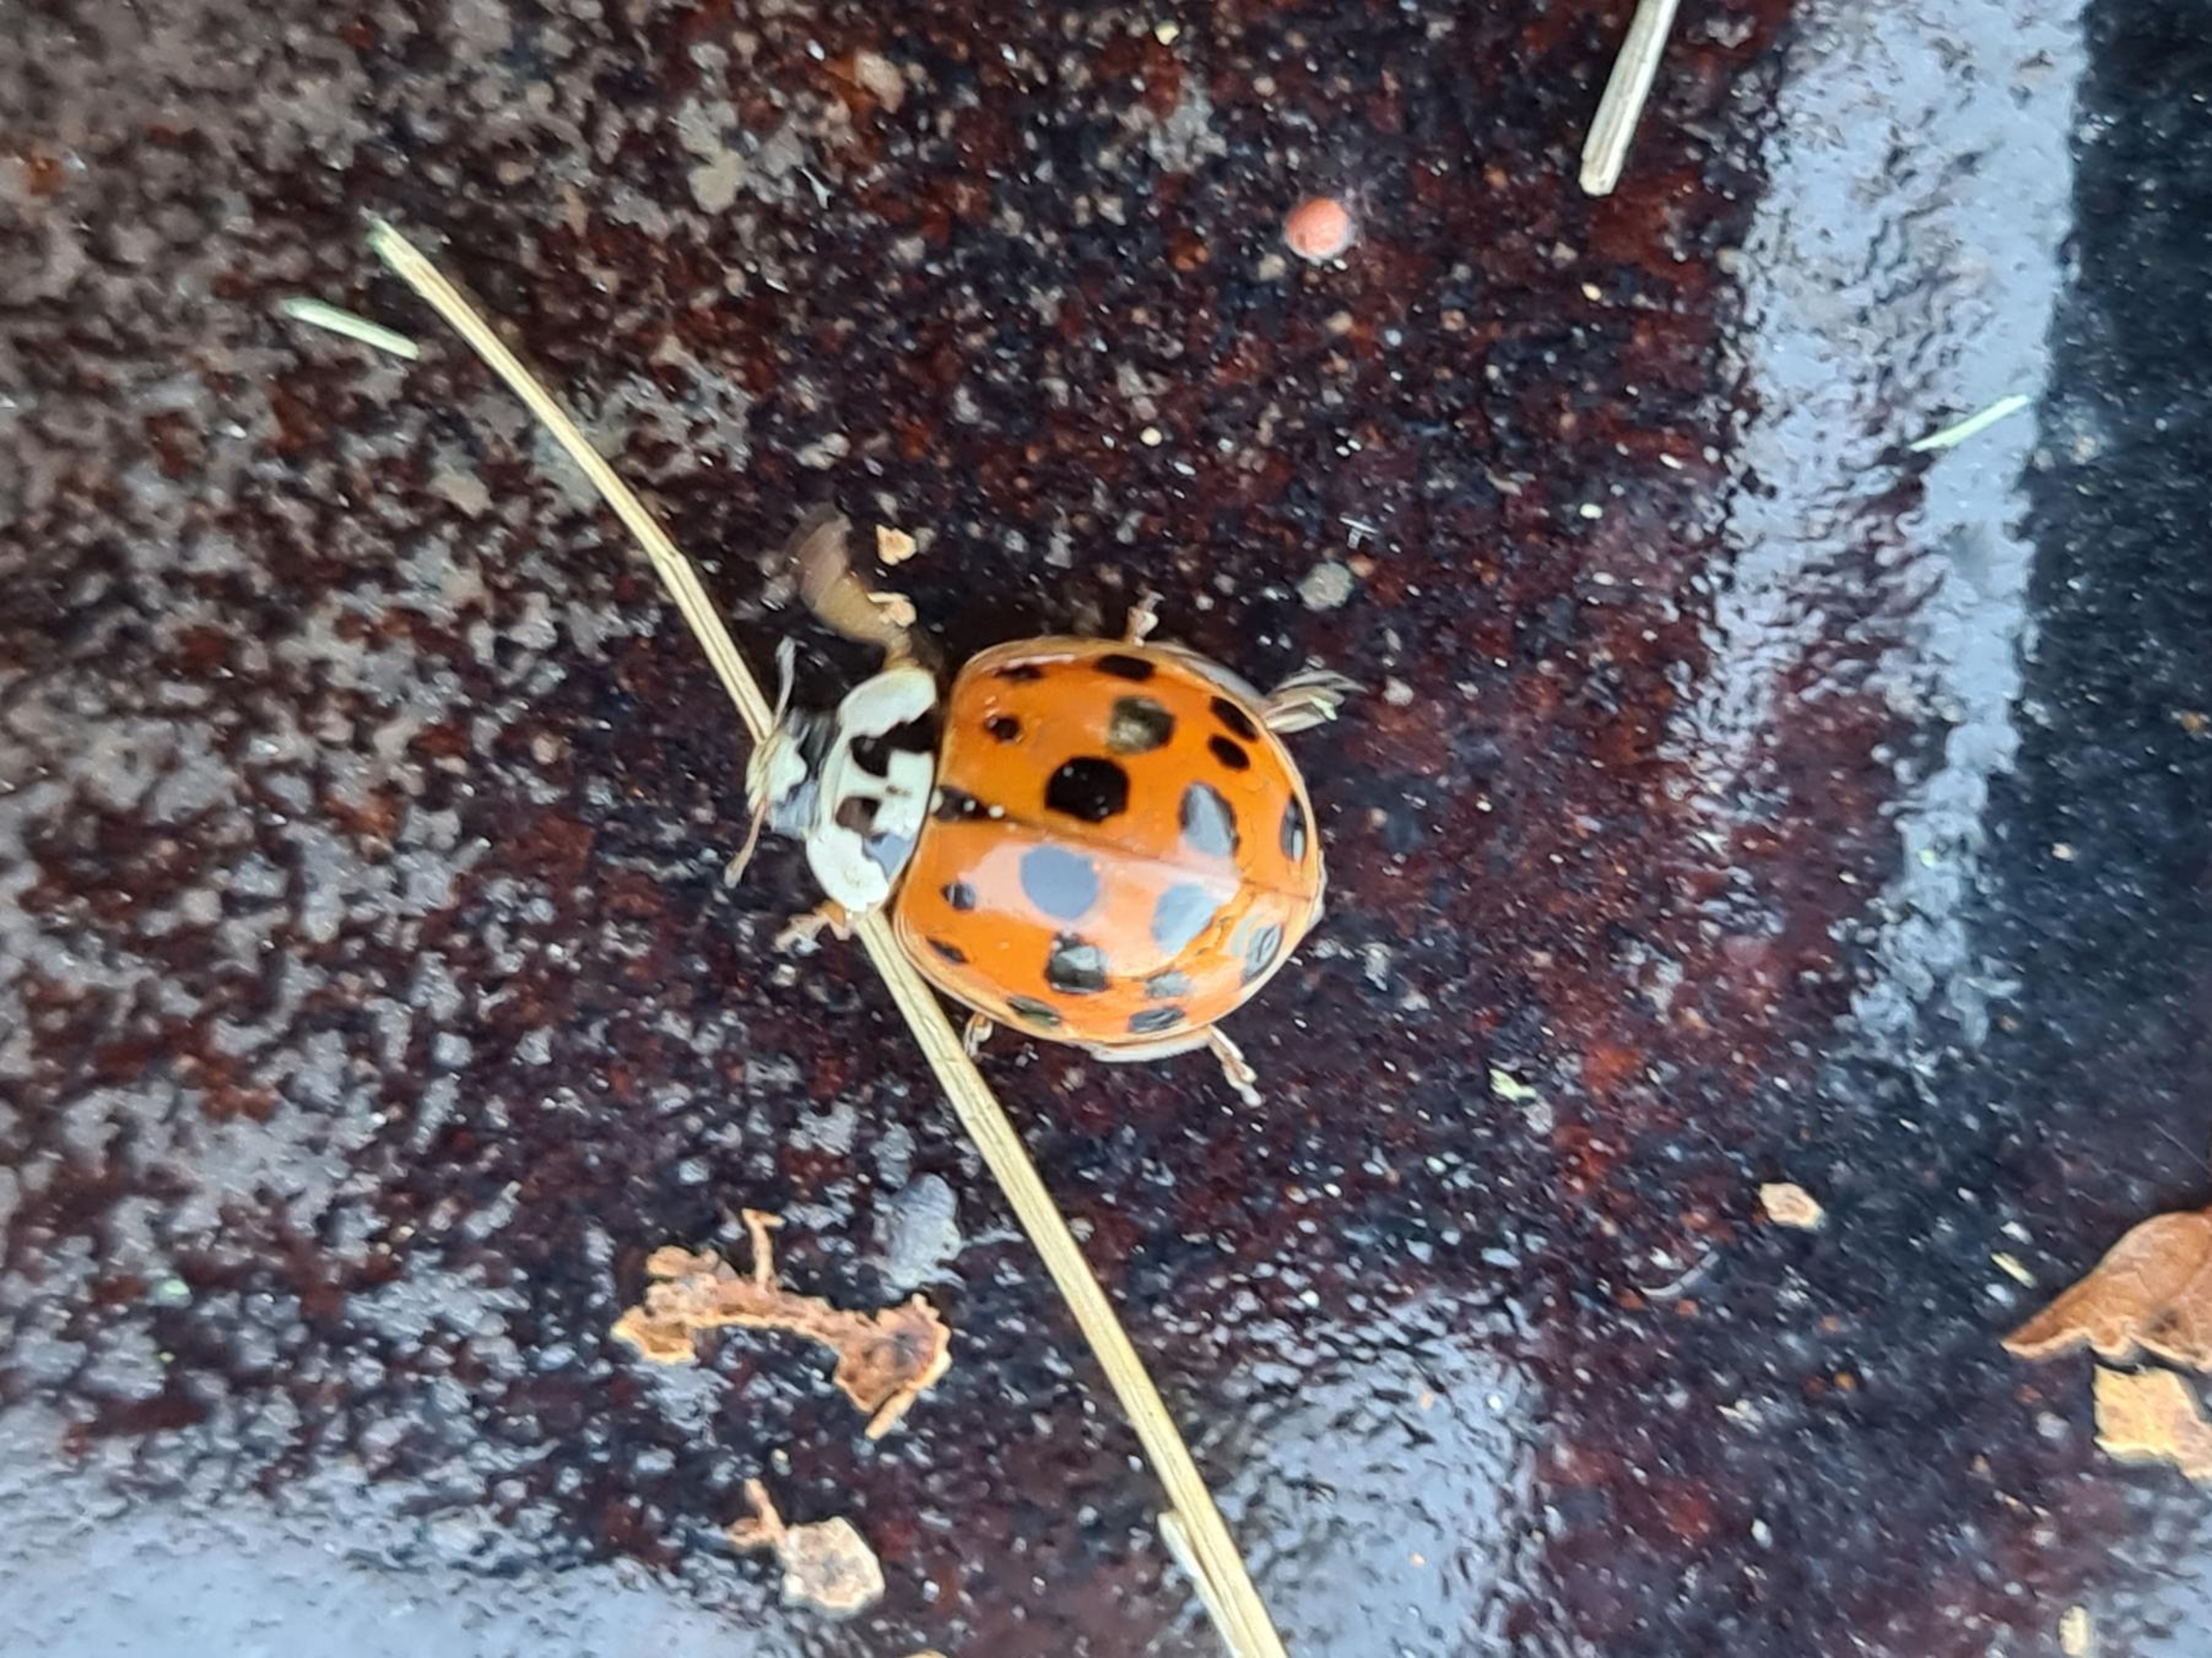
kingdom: Animalia
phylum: Arthropoda
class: Insecta
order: Coleoptera
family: Coccinellidae
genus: Harmonia
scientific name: Harmonia axyridis
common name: Harlekinmariehøne
